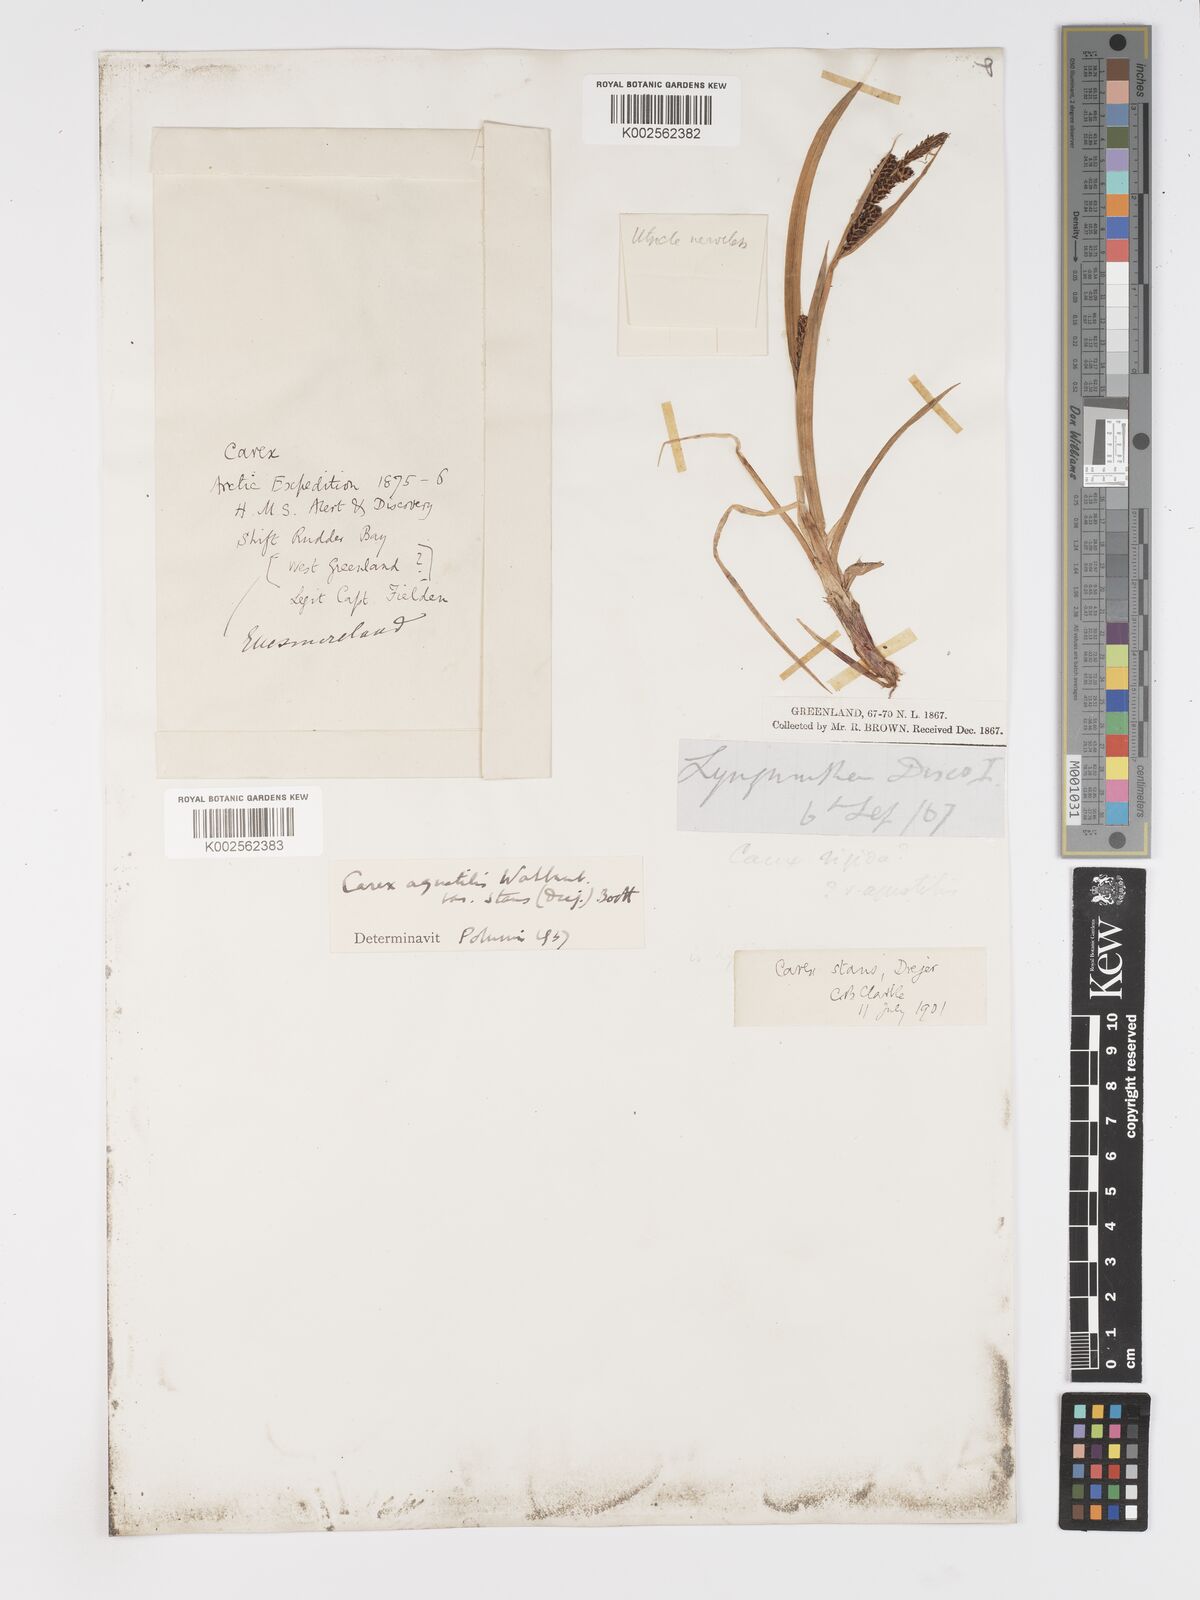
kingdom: Plantae
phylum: Tracheophyta
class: Liliopsida
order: Poales
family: Cyperaceae
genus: Carex
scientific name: Carex aquatilis
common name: Water sedge
